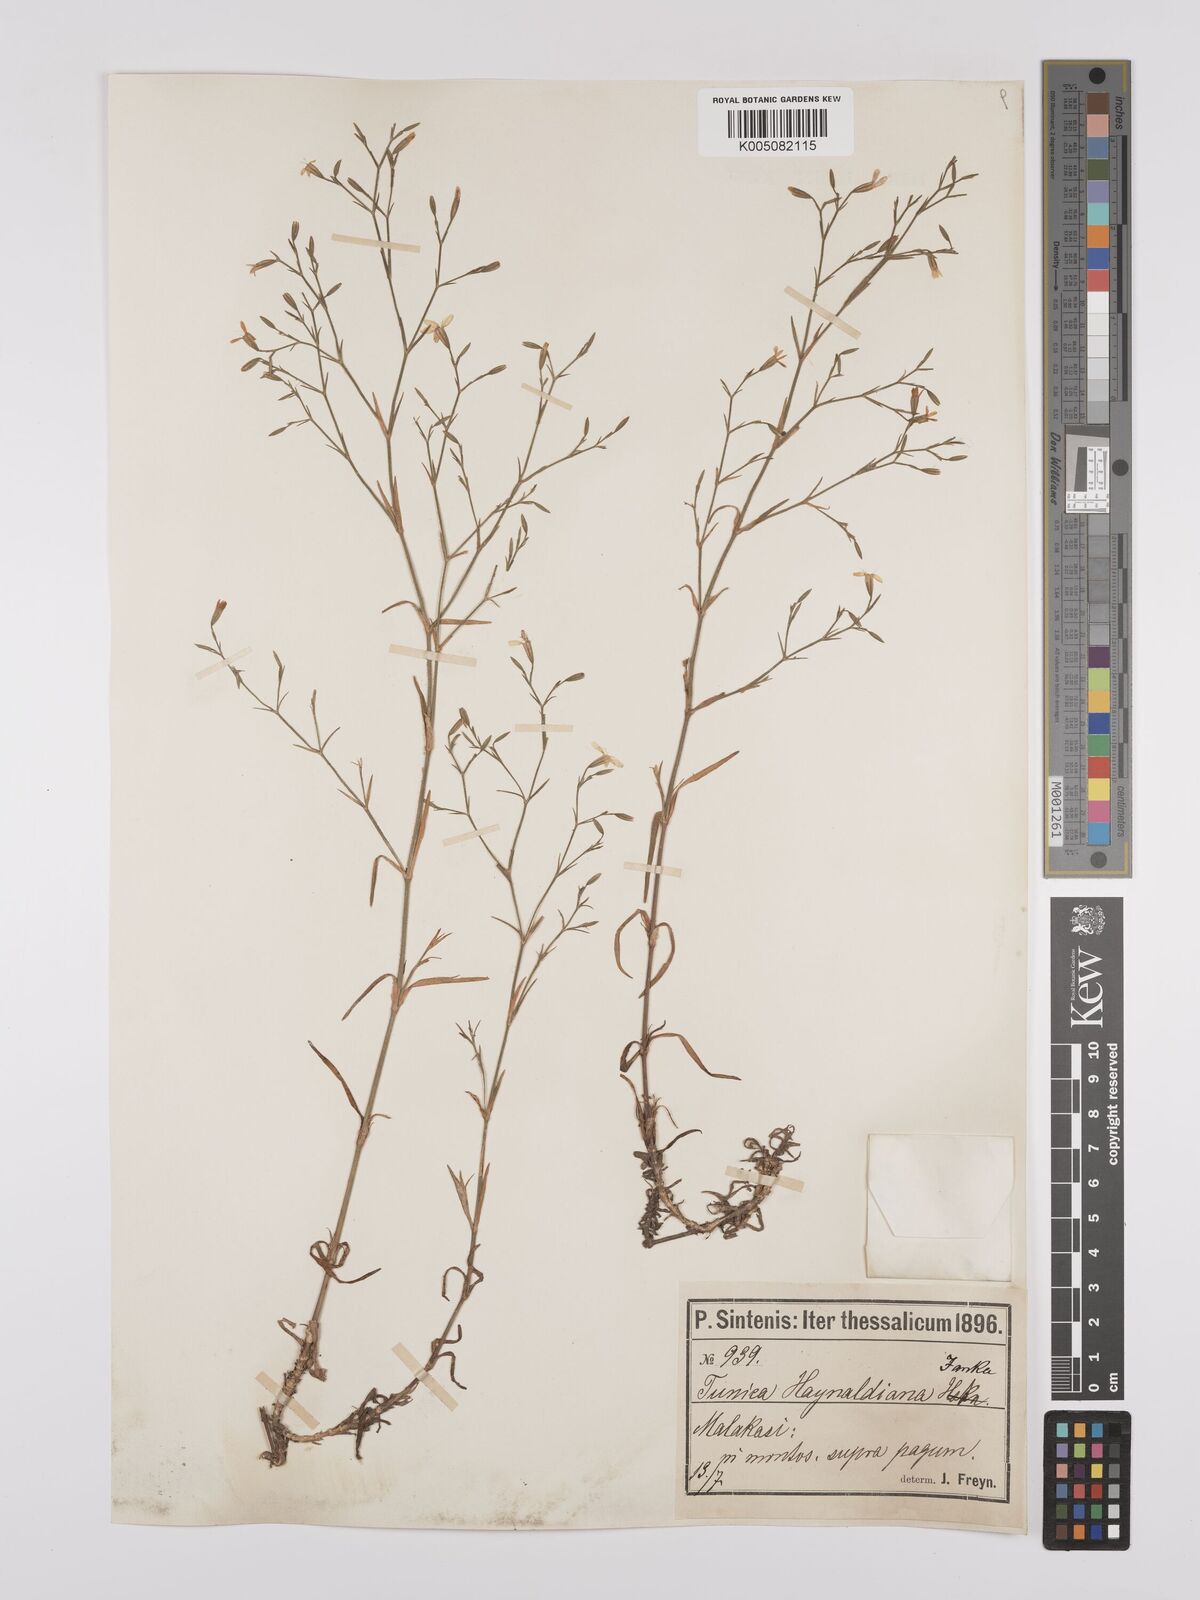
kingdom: Plantae
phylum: Tracheophyta
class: Magnoliopsida
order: Caryophyllales
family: Caryophyllaceae
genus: Dianthus
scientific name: Dianthus illyricus
